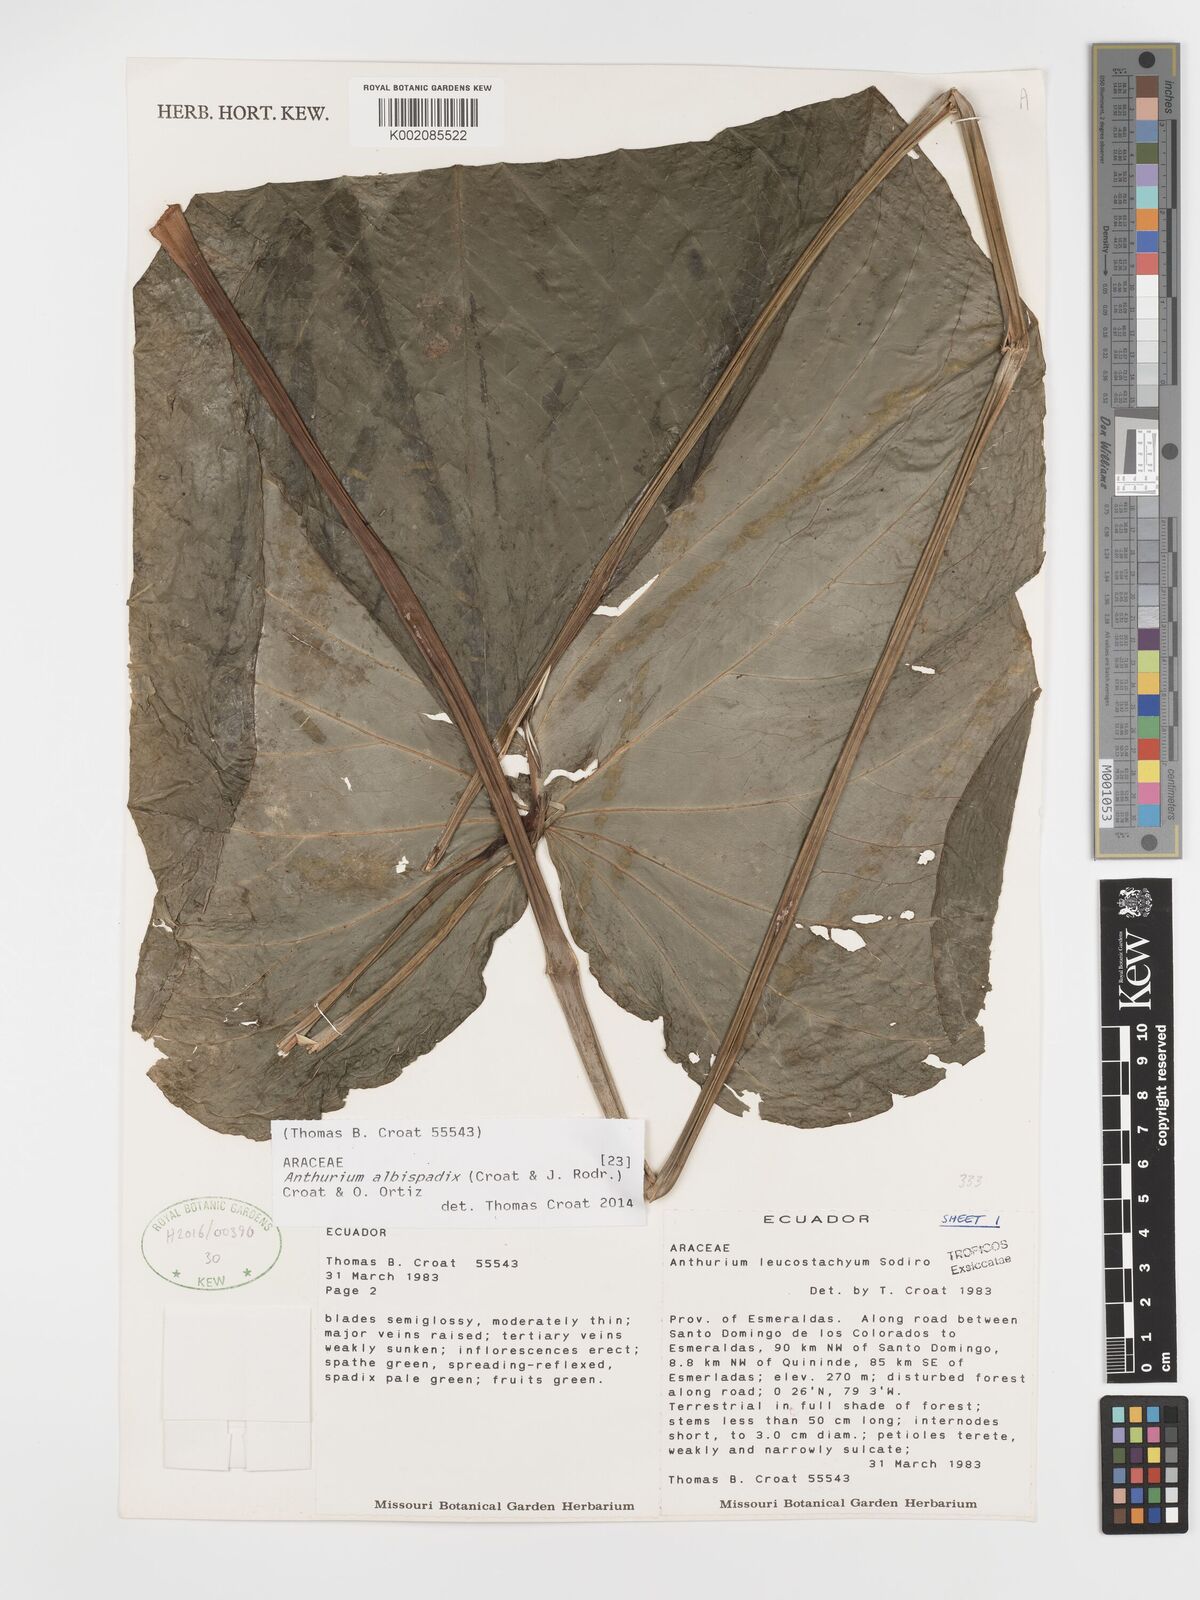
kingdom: Plantae
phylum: Tracheophyta
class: Liliopsida
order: Alismatales
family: Araceae
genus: Anthurium
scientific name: Anthurium albispadix
